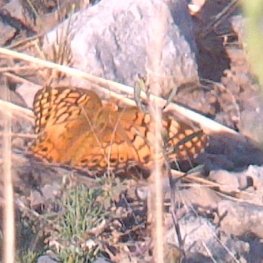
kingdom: Animalia
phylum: Arthropoda
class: Insecta
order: Lepidoptera
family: Nymphalidae
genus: Euptoieta
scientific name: Euptoieta claudia
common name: Variegated Fritillary
